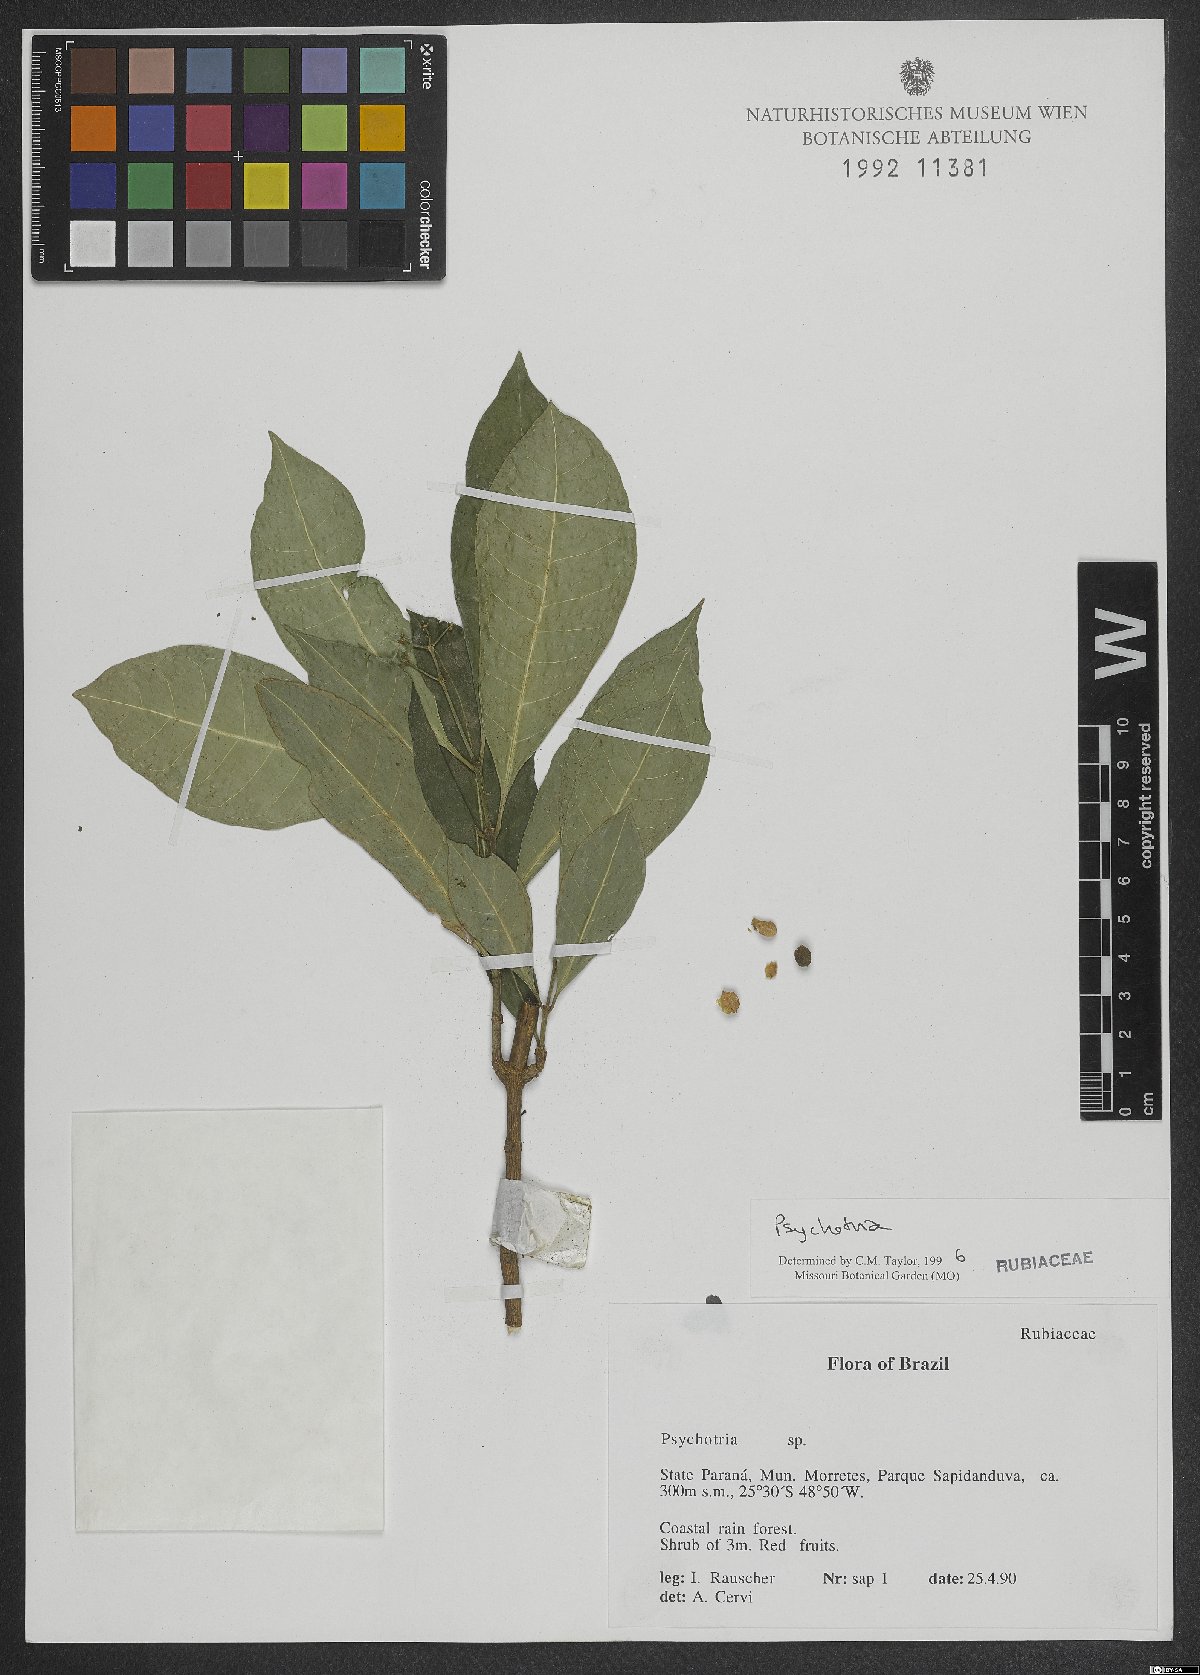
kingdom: Plantae
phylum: Tracheophyta
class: Magnoliopsida
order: Gentianales
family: Rubiaceae
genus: Eumachia
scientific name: Eumachia cymuligera
